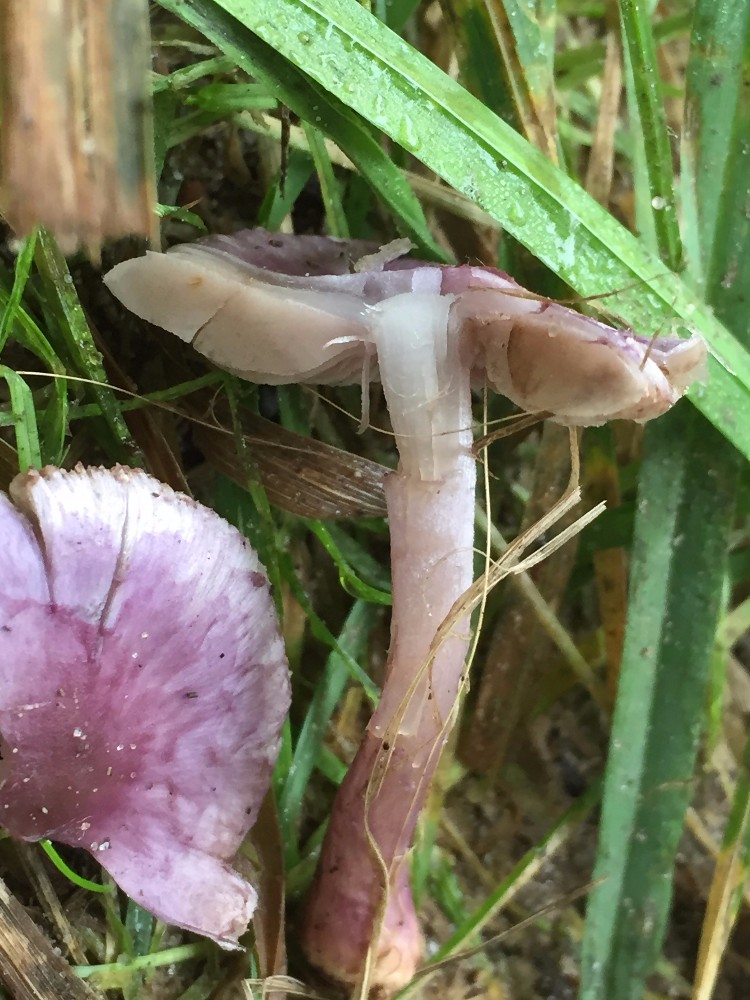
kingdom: Fungi
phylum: Basidiomycota
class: Agaricomycetes
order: Agaricales
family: Inocybaceae
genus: Inocybe
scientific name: Inocybe geophylla
